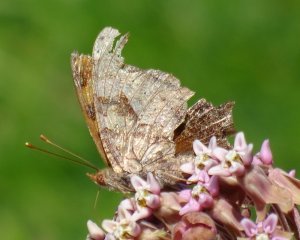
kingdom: Animalia
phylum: Arthropoda
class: Insecta
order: Lepidoptera
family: Nymphalidae
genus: Polygonia
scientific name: Polygonia
